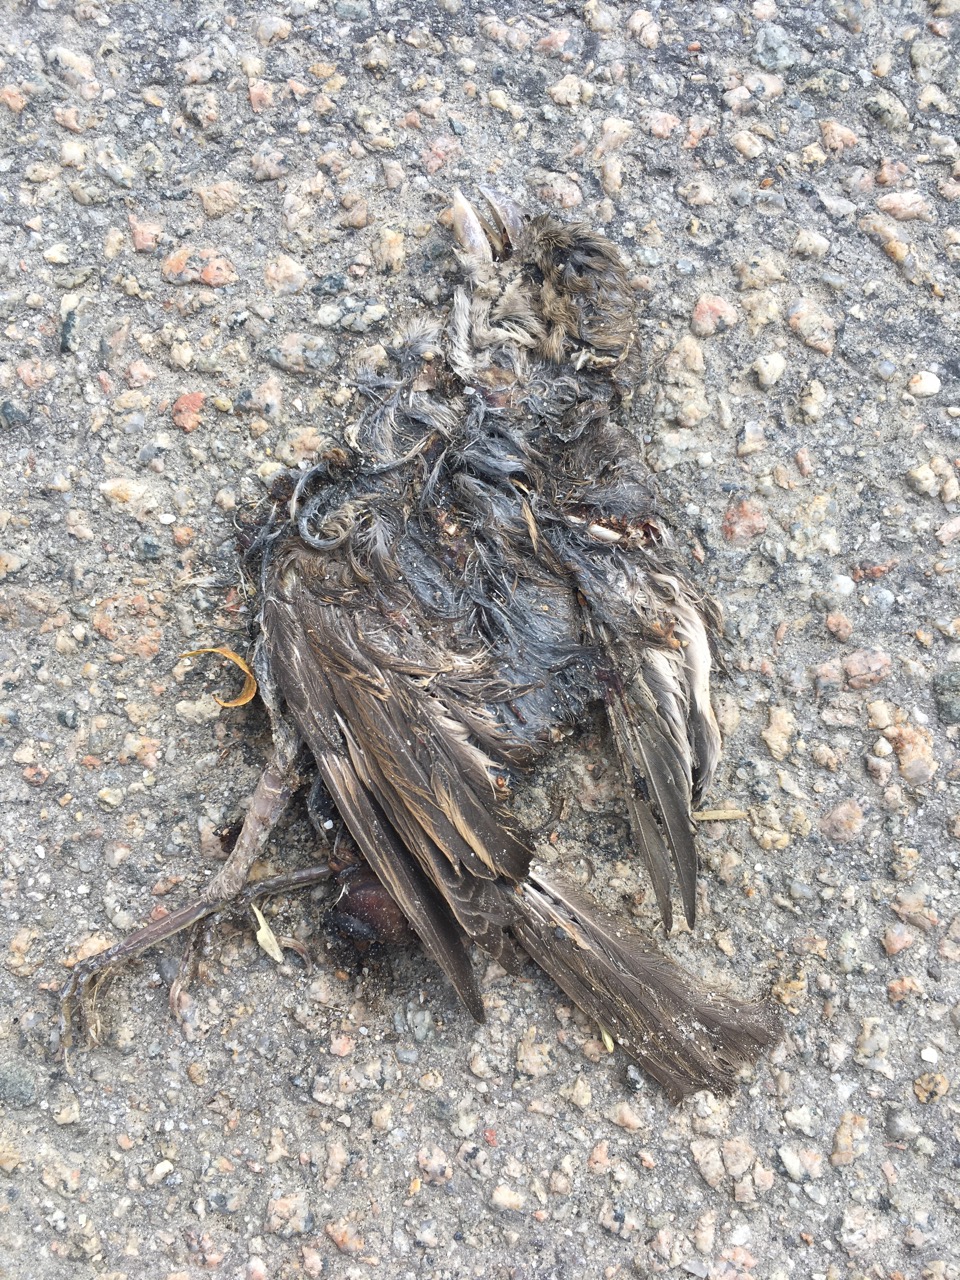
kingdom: Animalia
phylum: Chordata
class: Aves
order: Passeriformes
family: Passeridae
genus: Passer
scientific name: Passer
